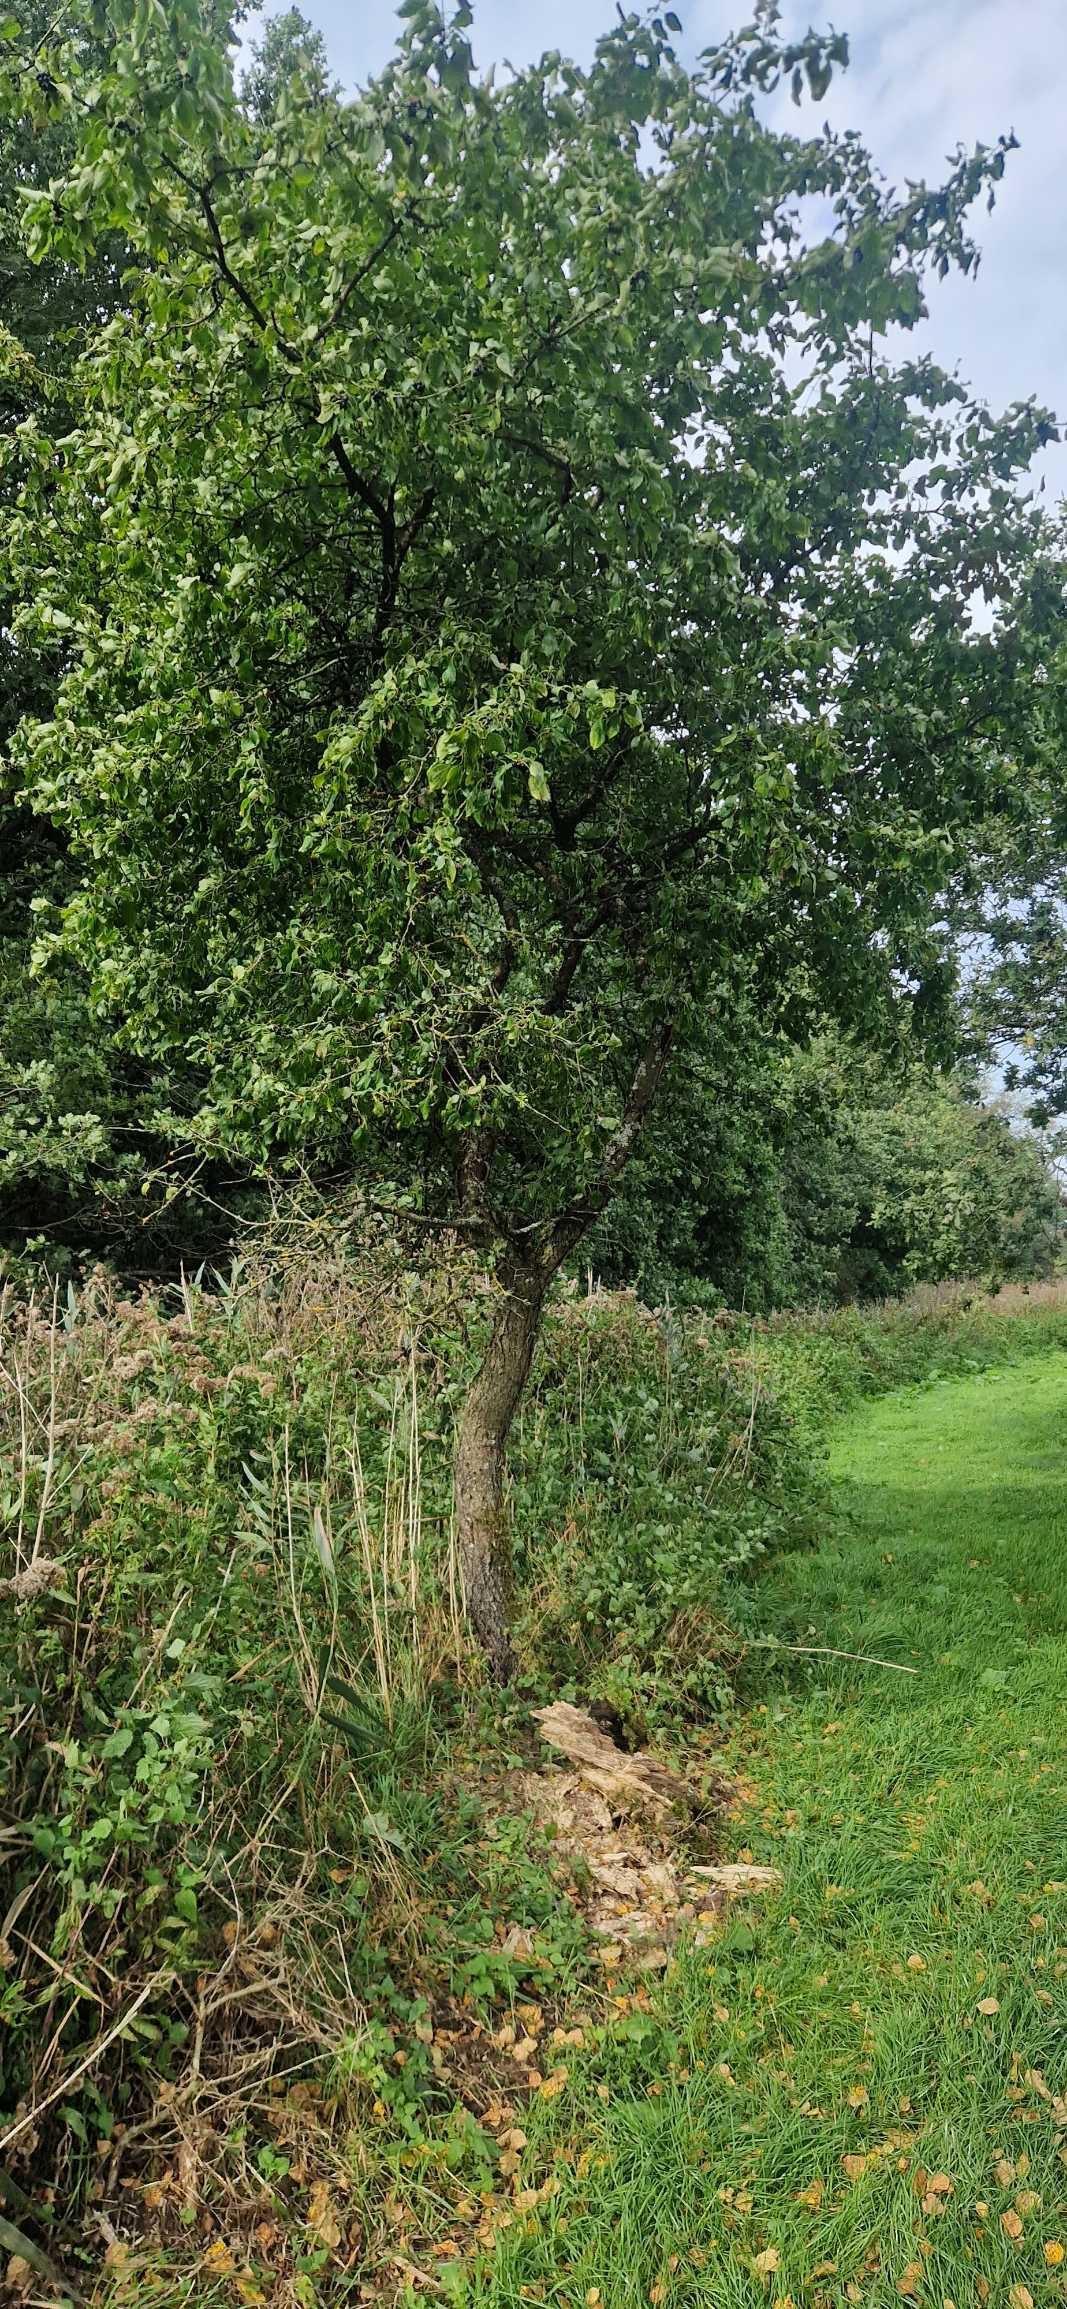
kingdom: Plantae
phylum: Tracheophyta
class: Magnoliopsida
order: Rosales
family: Rhamnaceae
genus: Rhamnus
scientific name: Rhamnus cathartica
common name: Vrietorn
